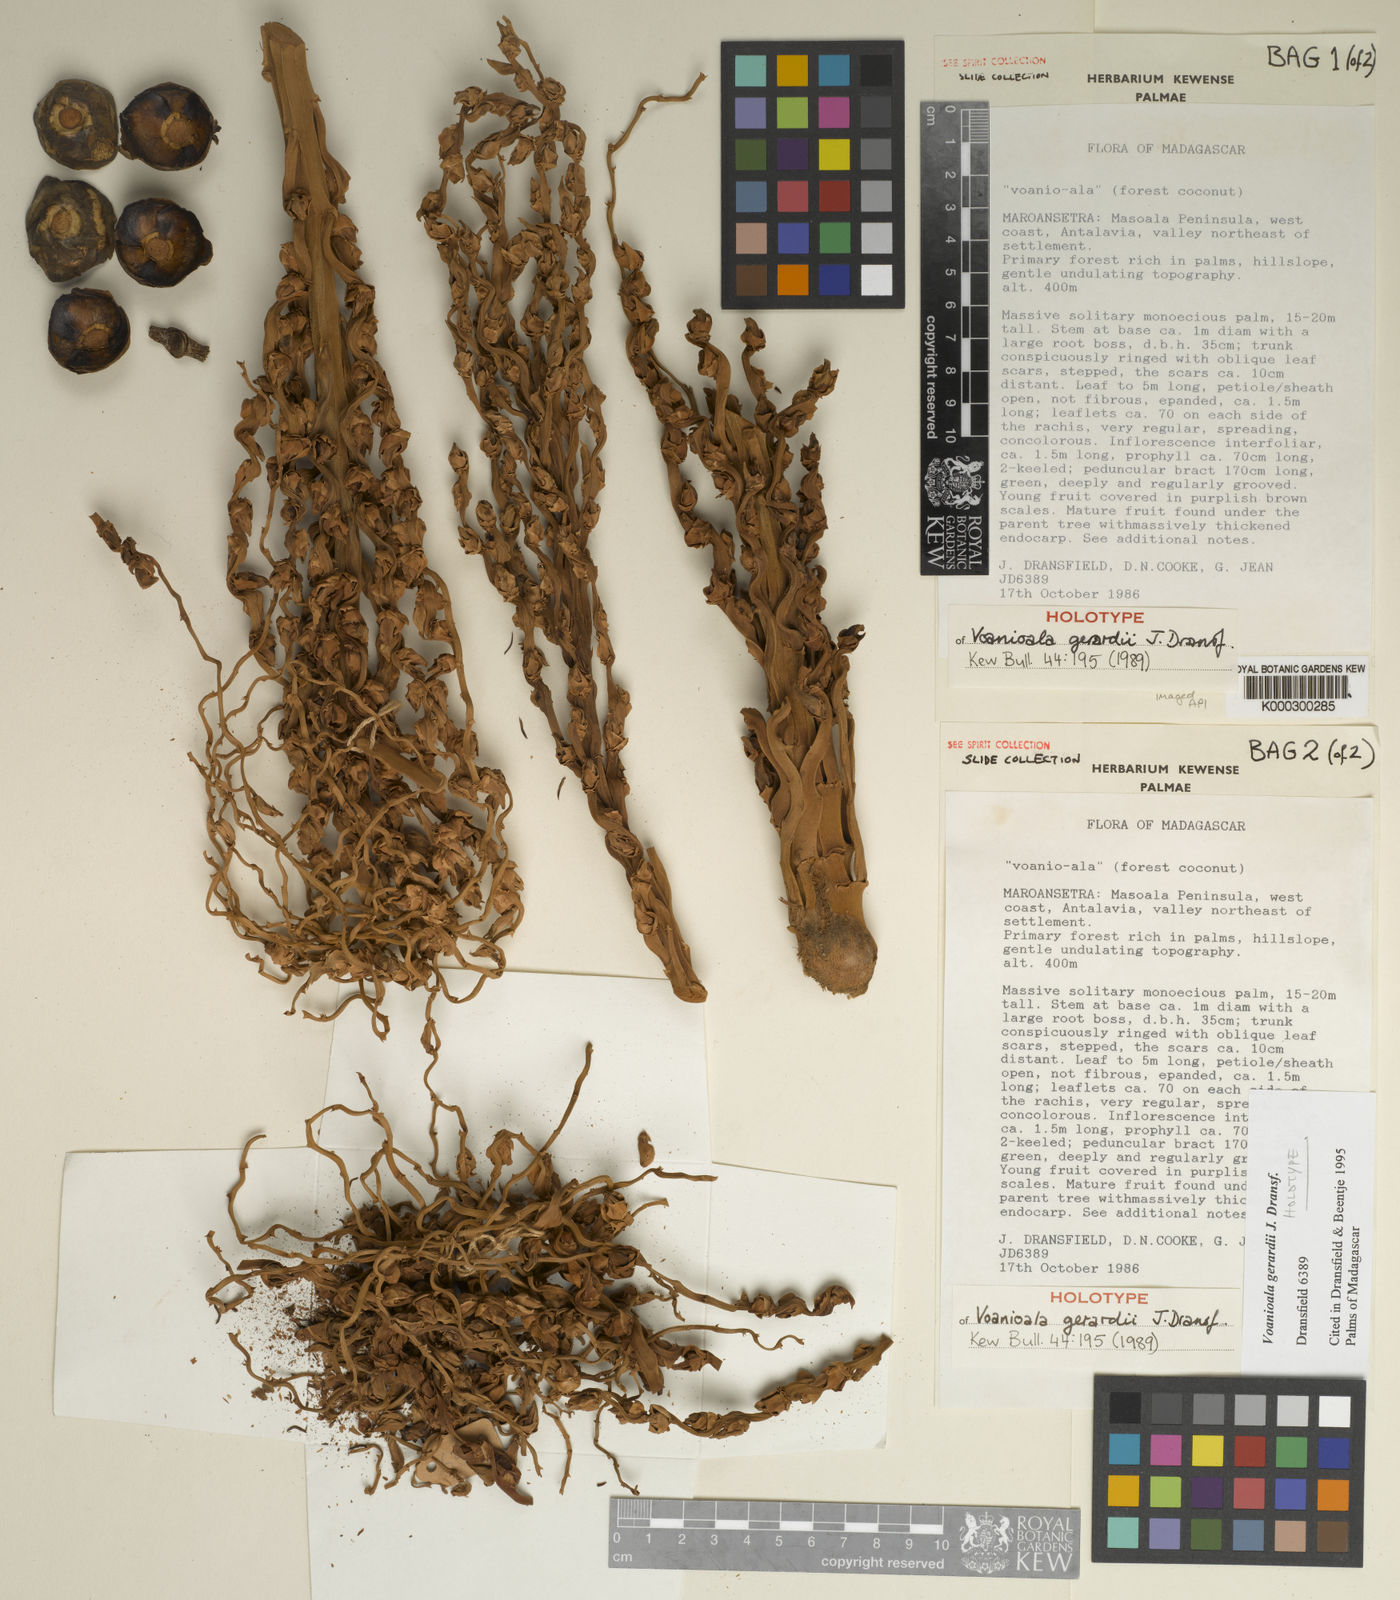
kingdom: Plantae
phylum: Tracheophyta
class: Liliopsida
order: Arecales
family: Arecaceae
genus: Voanioala
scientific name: Voanioala gerardii
